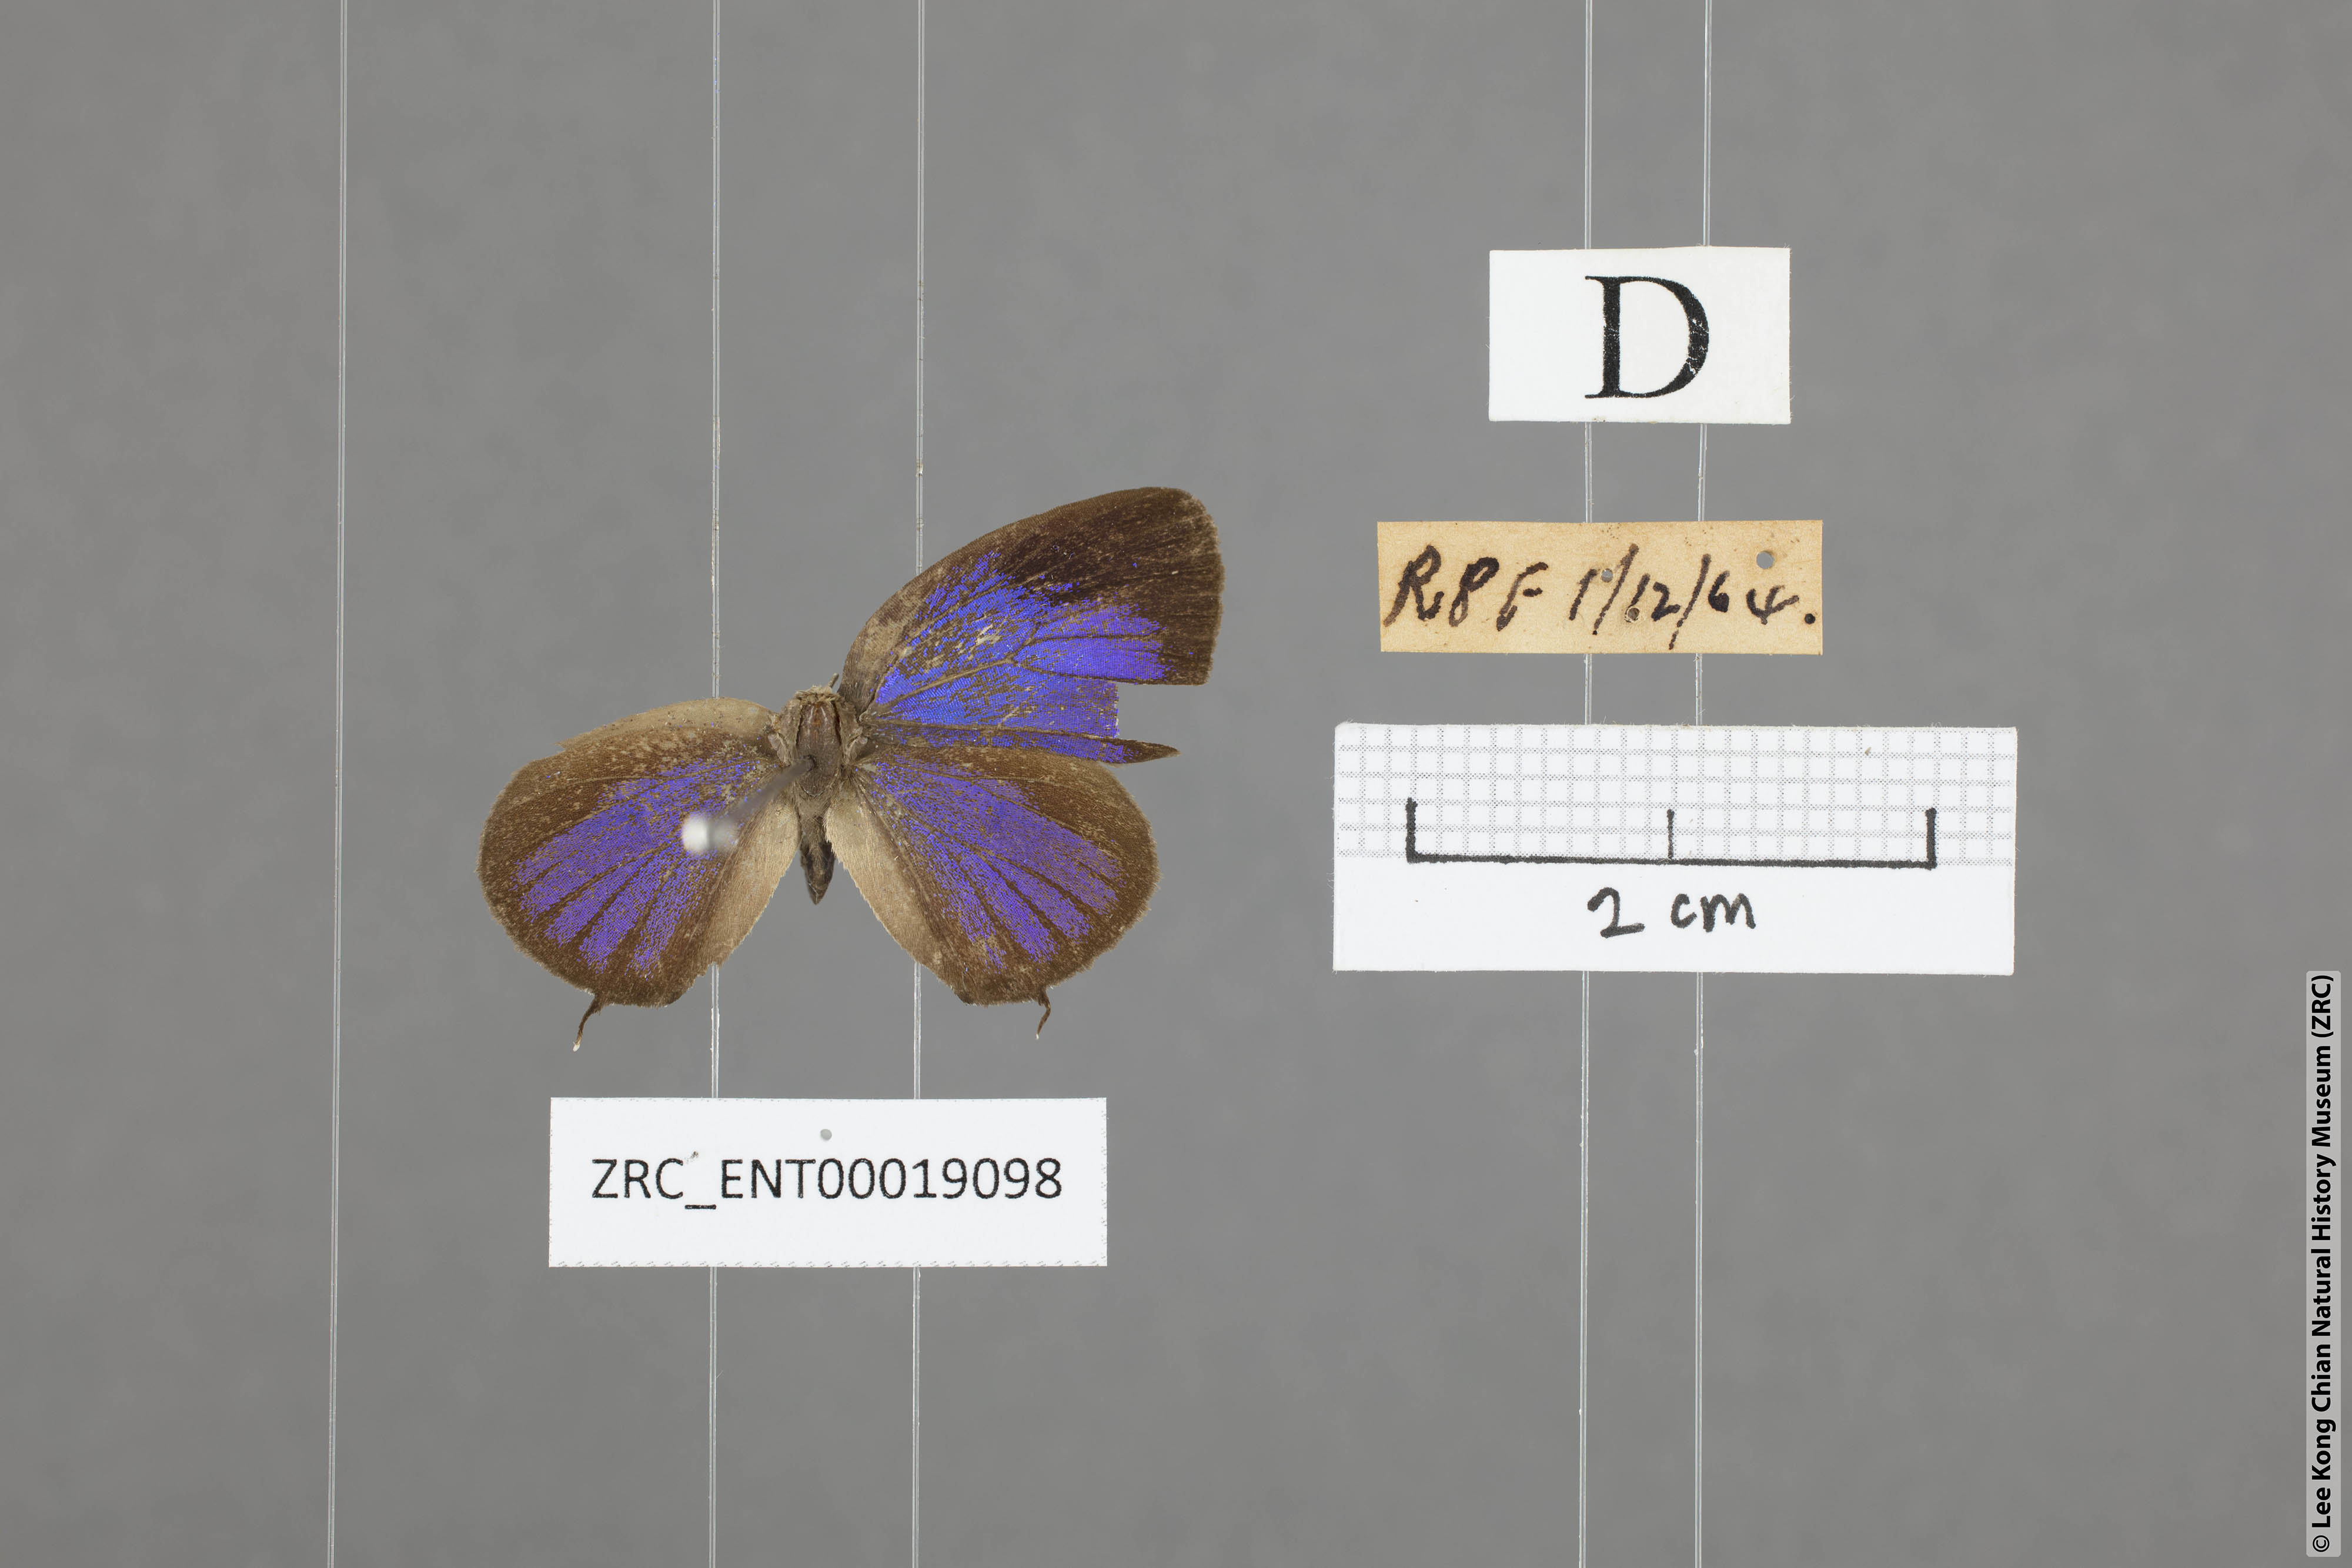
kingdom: Animalia
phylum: Arthropoda
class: Insecta
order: Lepidoptera
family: Lycaenidae
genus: Arhopala
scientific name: Arhopala alitaeus
